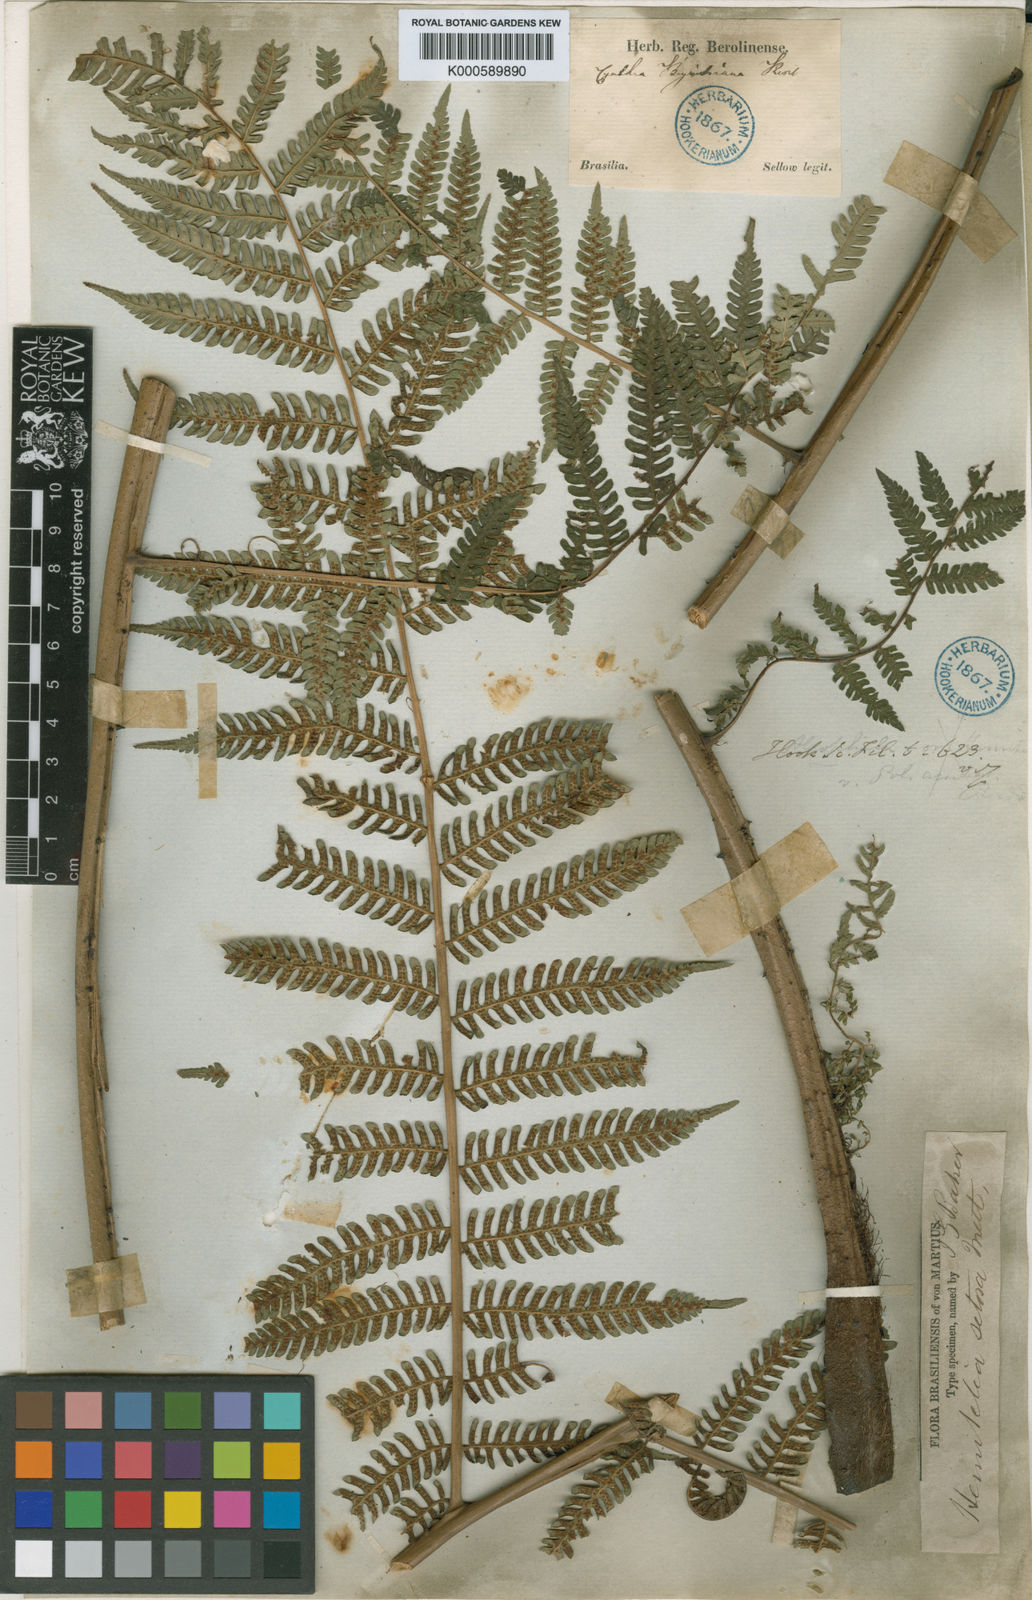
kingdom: Plantae
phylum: Tracheophyta
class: Polypodiopsida
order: Cyatheales
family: Cyatheaceae
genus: Alsophila
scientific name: Alsophila setosa
